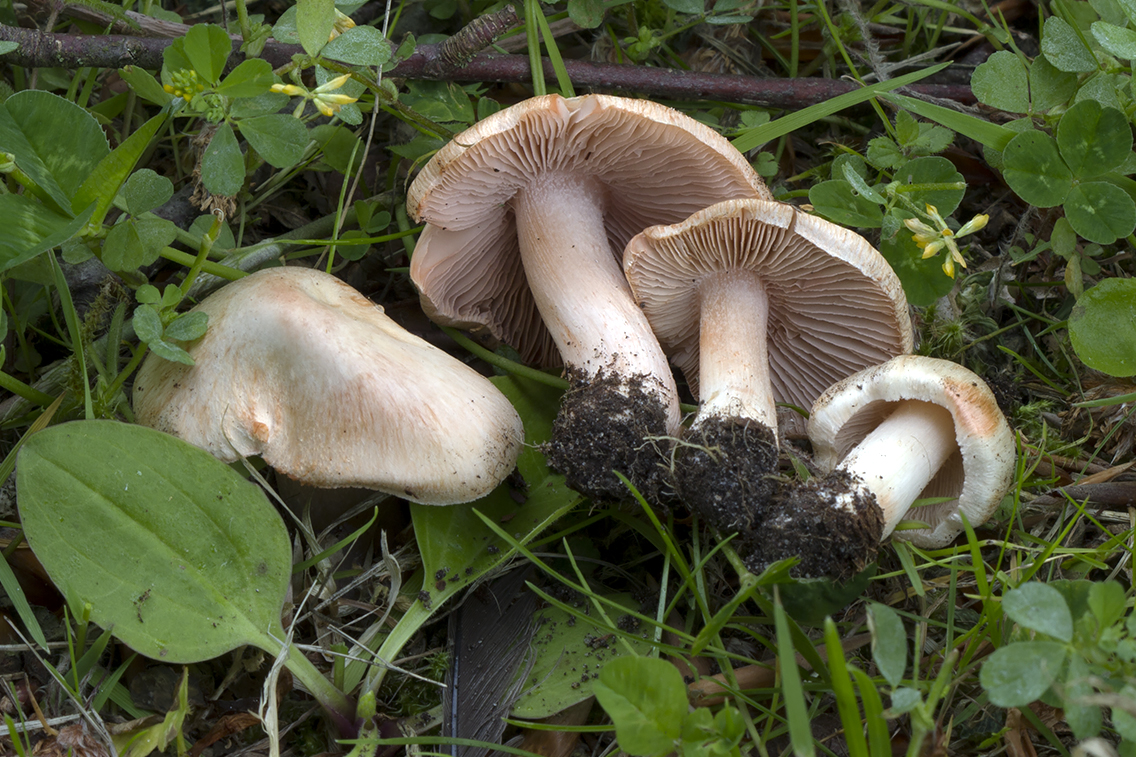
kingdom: Fungi
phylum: Basidiomycota
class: Agaricomycetes
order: Agaricales
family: Inocybaceae
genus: Inosperma
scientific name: Inosperma erubescens
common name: giftig trævlhat
